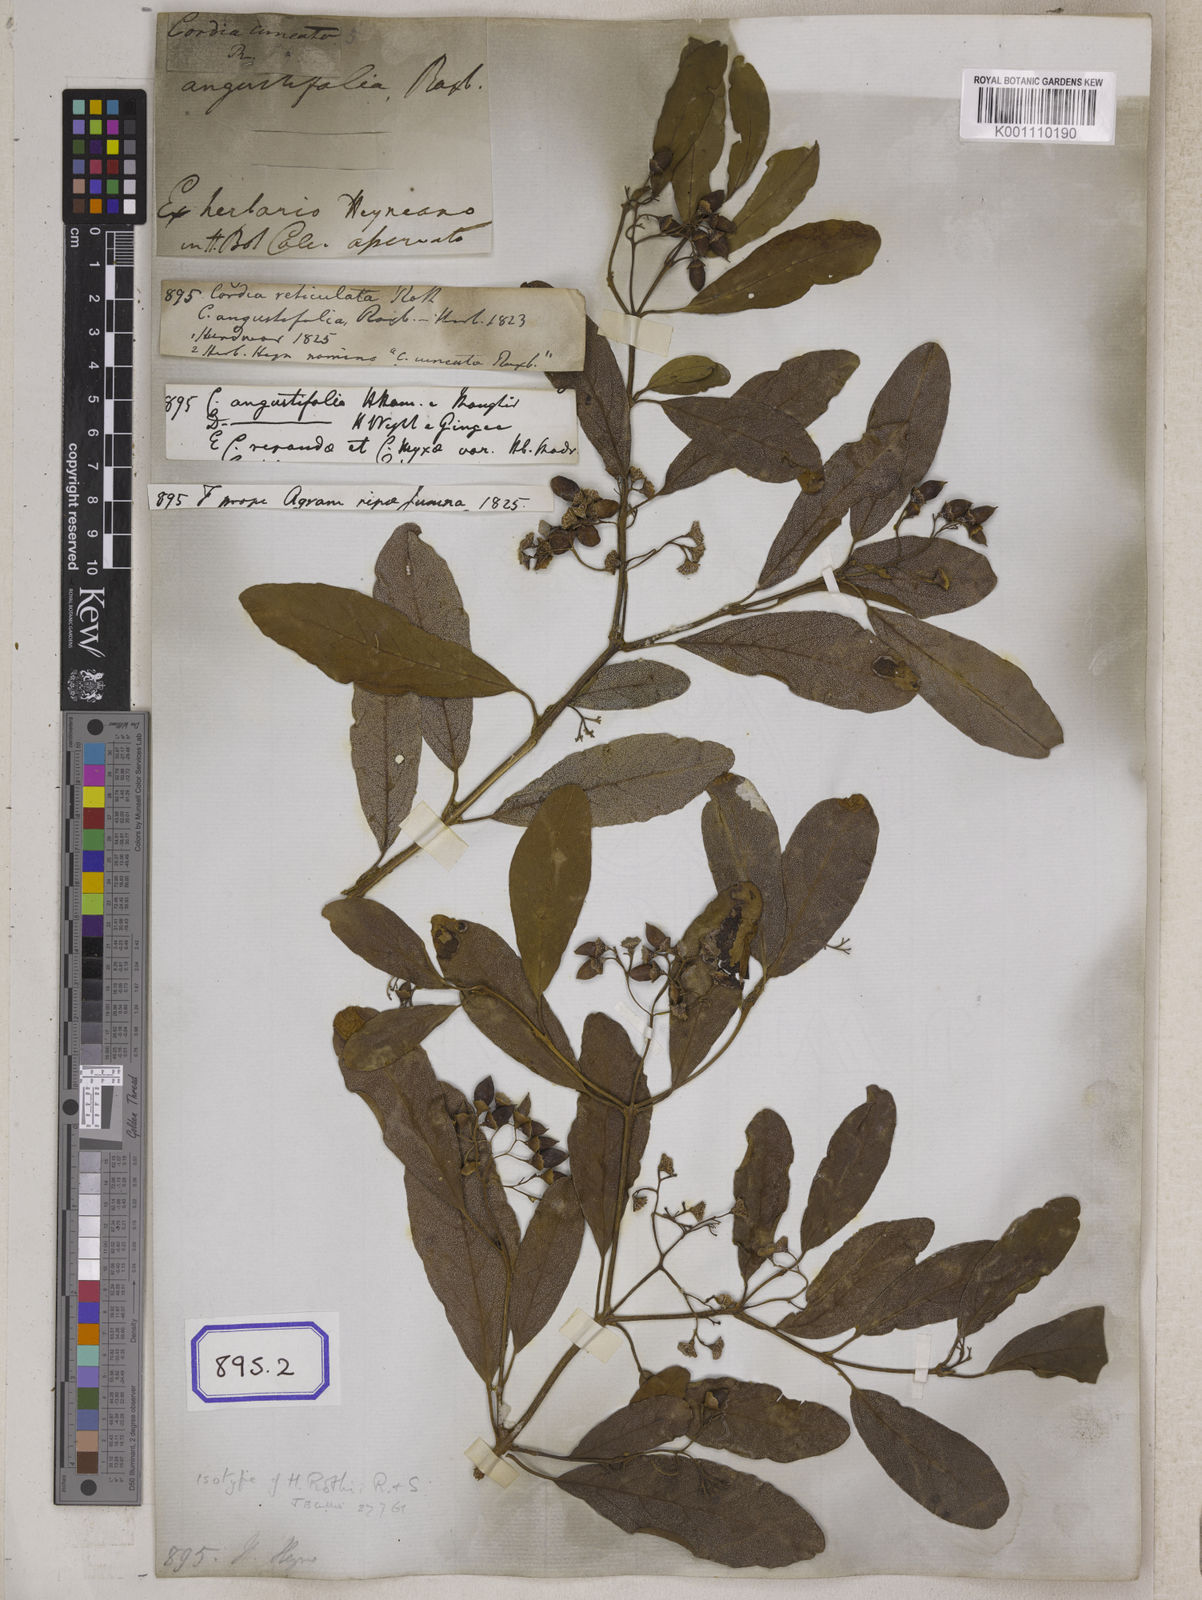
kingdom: Plantae
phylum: Tracheophyta
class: Magnoliopsida
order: Boraginales
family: Cordiaceae
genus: Cordia
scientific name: Cordia sinensis
